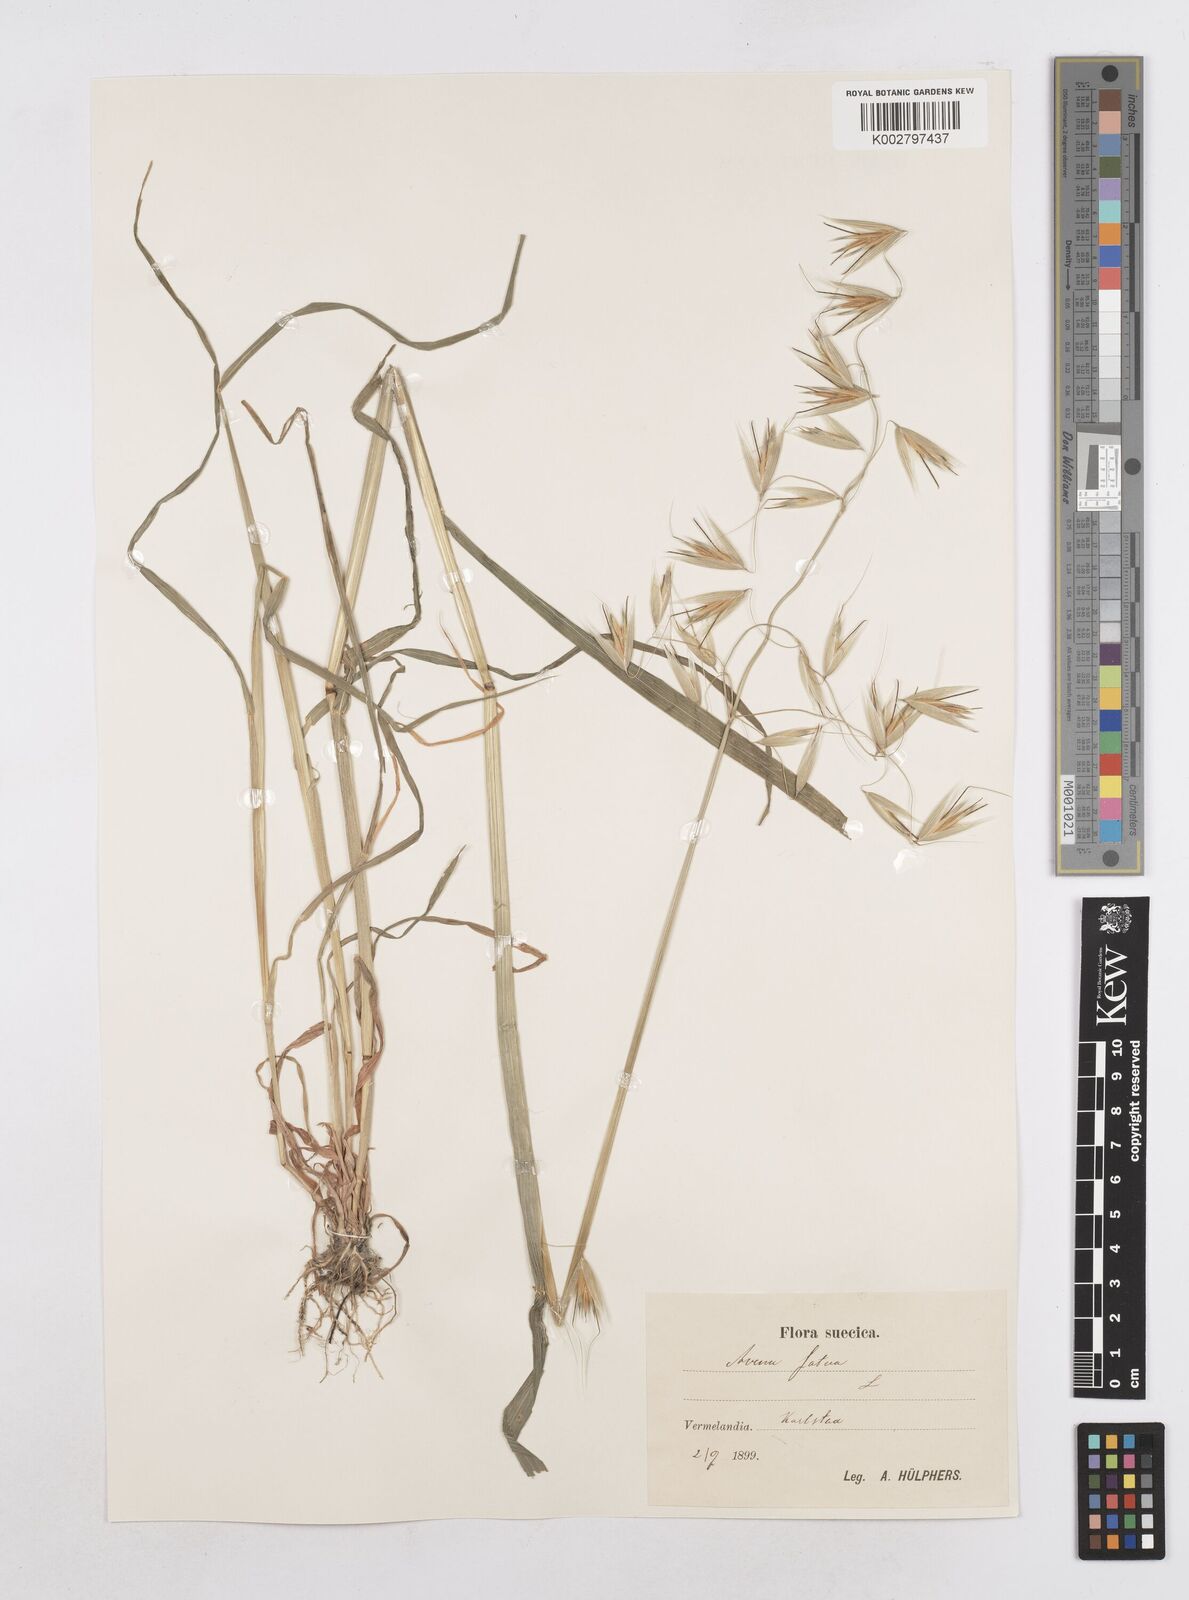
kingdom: Plantae
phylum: Tracheophyta
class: Liliopsida
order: Poales
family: Poaceae
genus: Avena
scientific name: Avena fatua
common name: Wild oat
